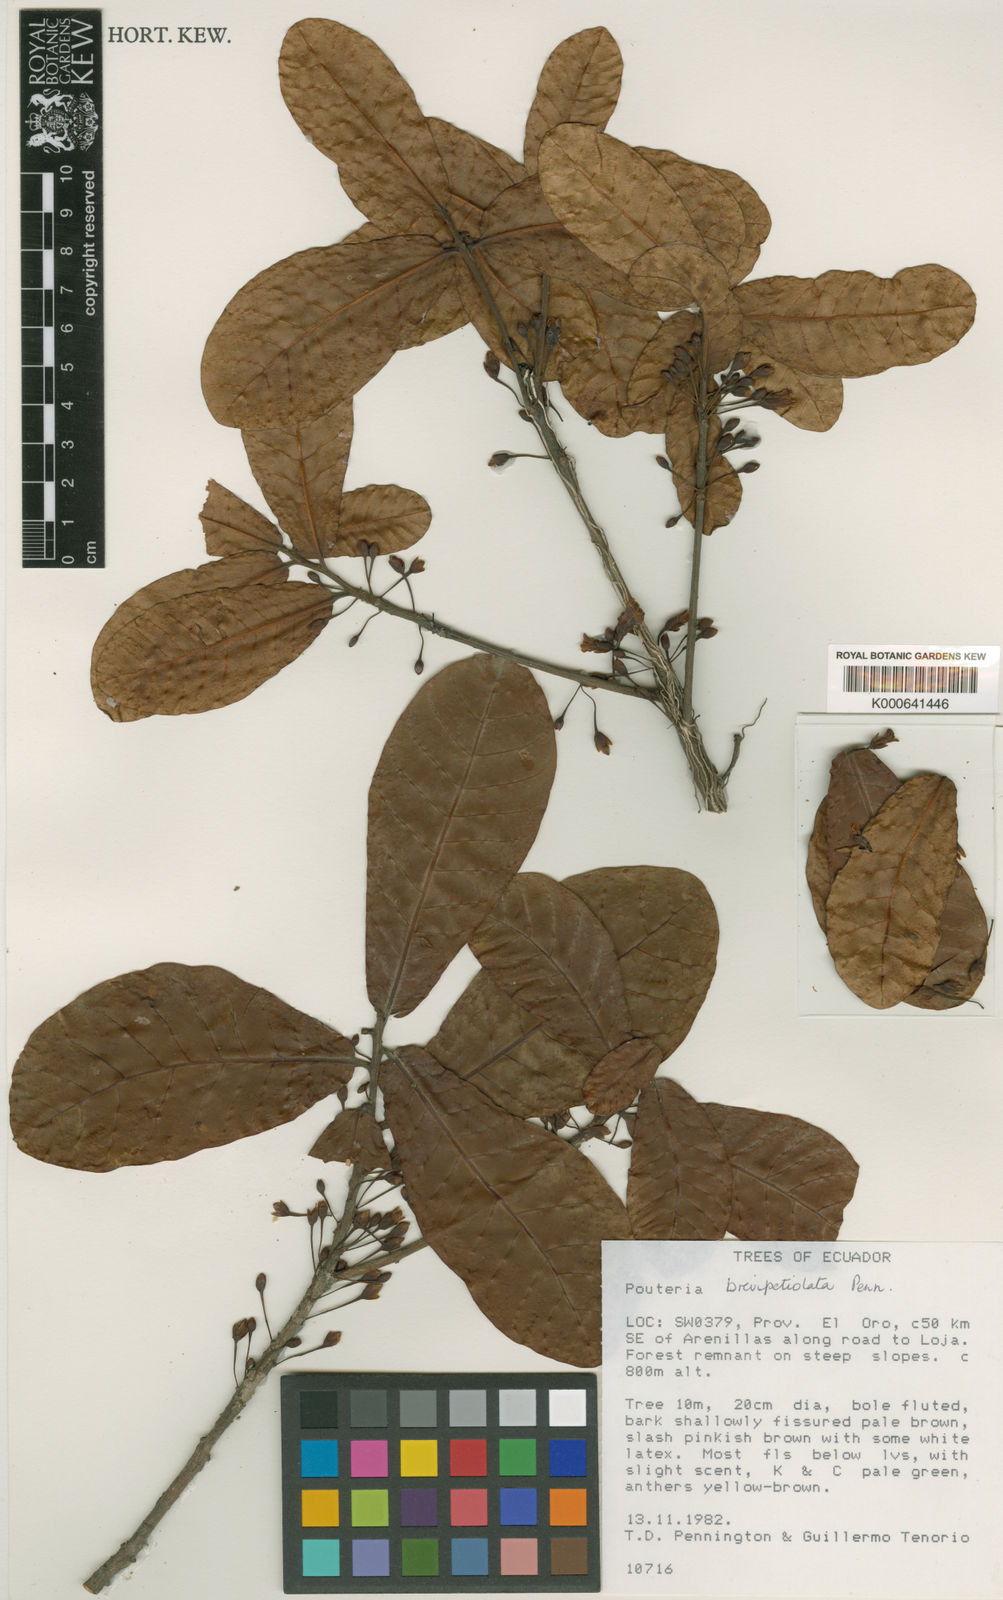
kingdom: Plantae
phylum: Tracheophyta
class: Magnoliopsida
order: Ericales
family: Sapotaceae
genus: Pouteria
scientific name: Pouteria brevipetiolata
